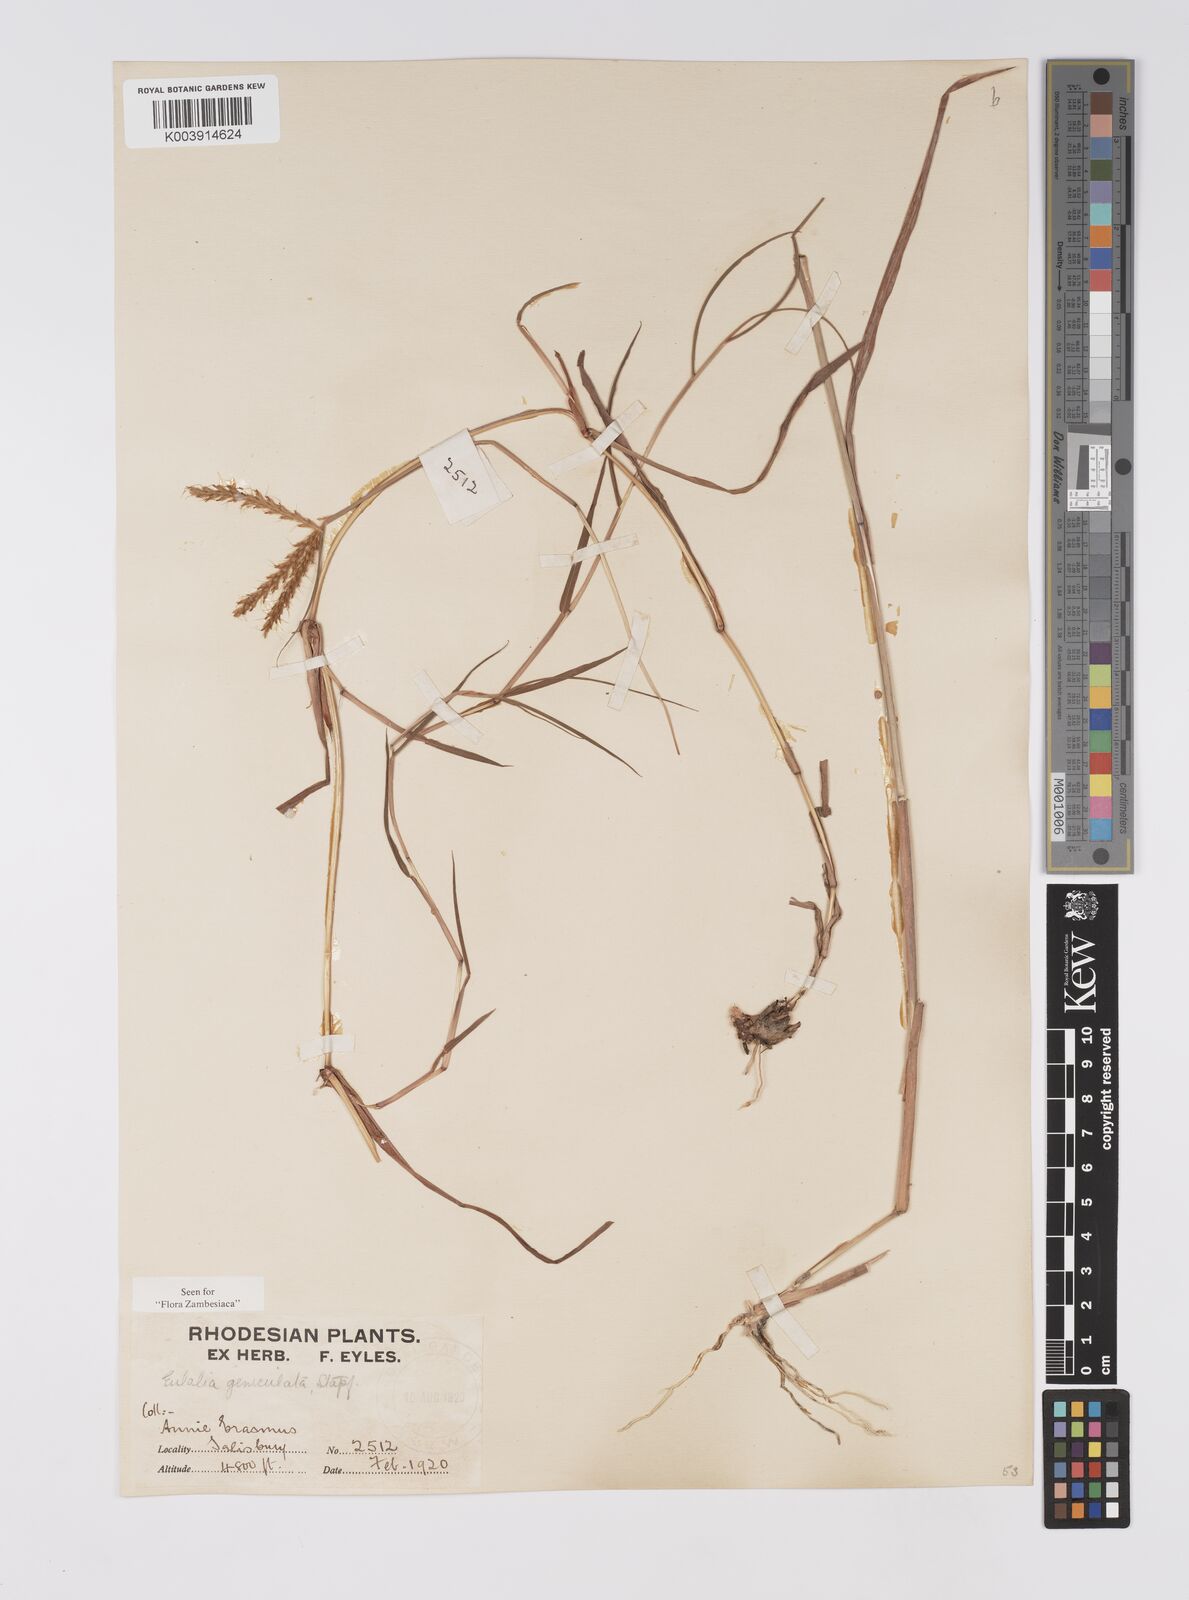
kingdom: Plantae
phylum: Tracheophyta
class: Liliopsida
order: Poales
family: Poaceae
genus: Eulalia
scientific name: Eulalia aurea
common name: Silky browntop
